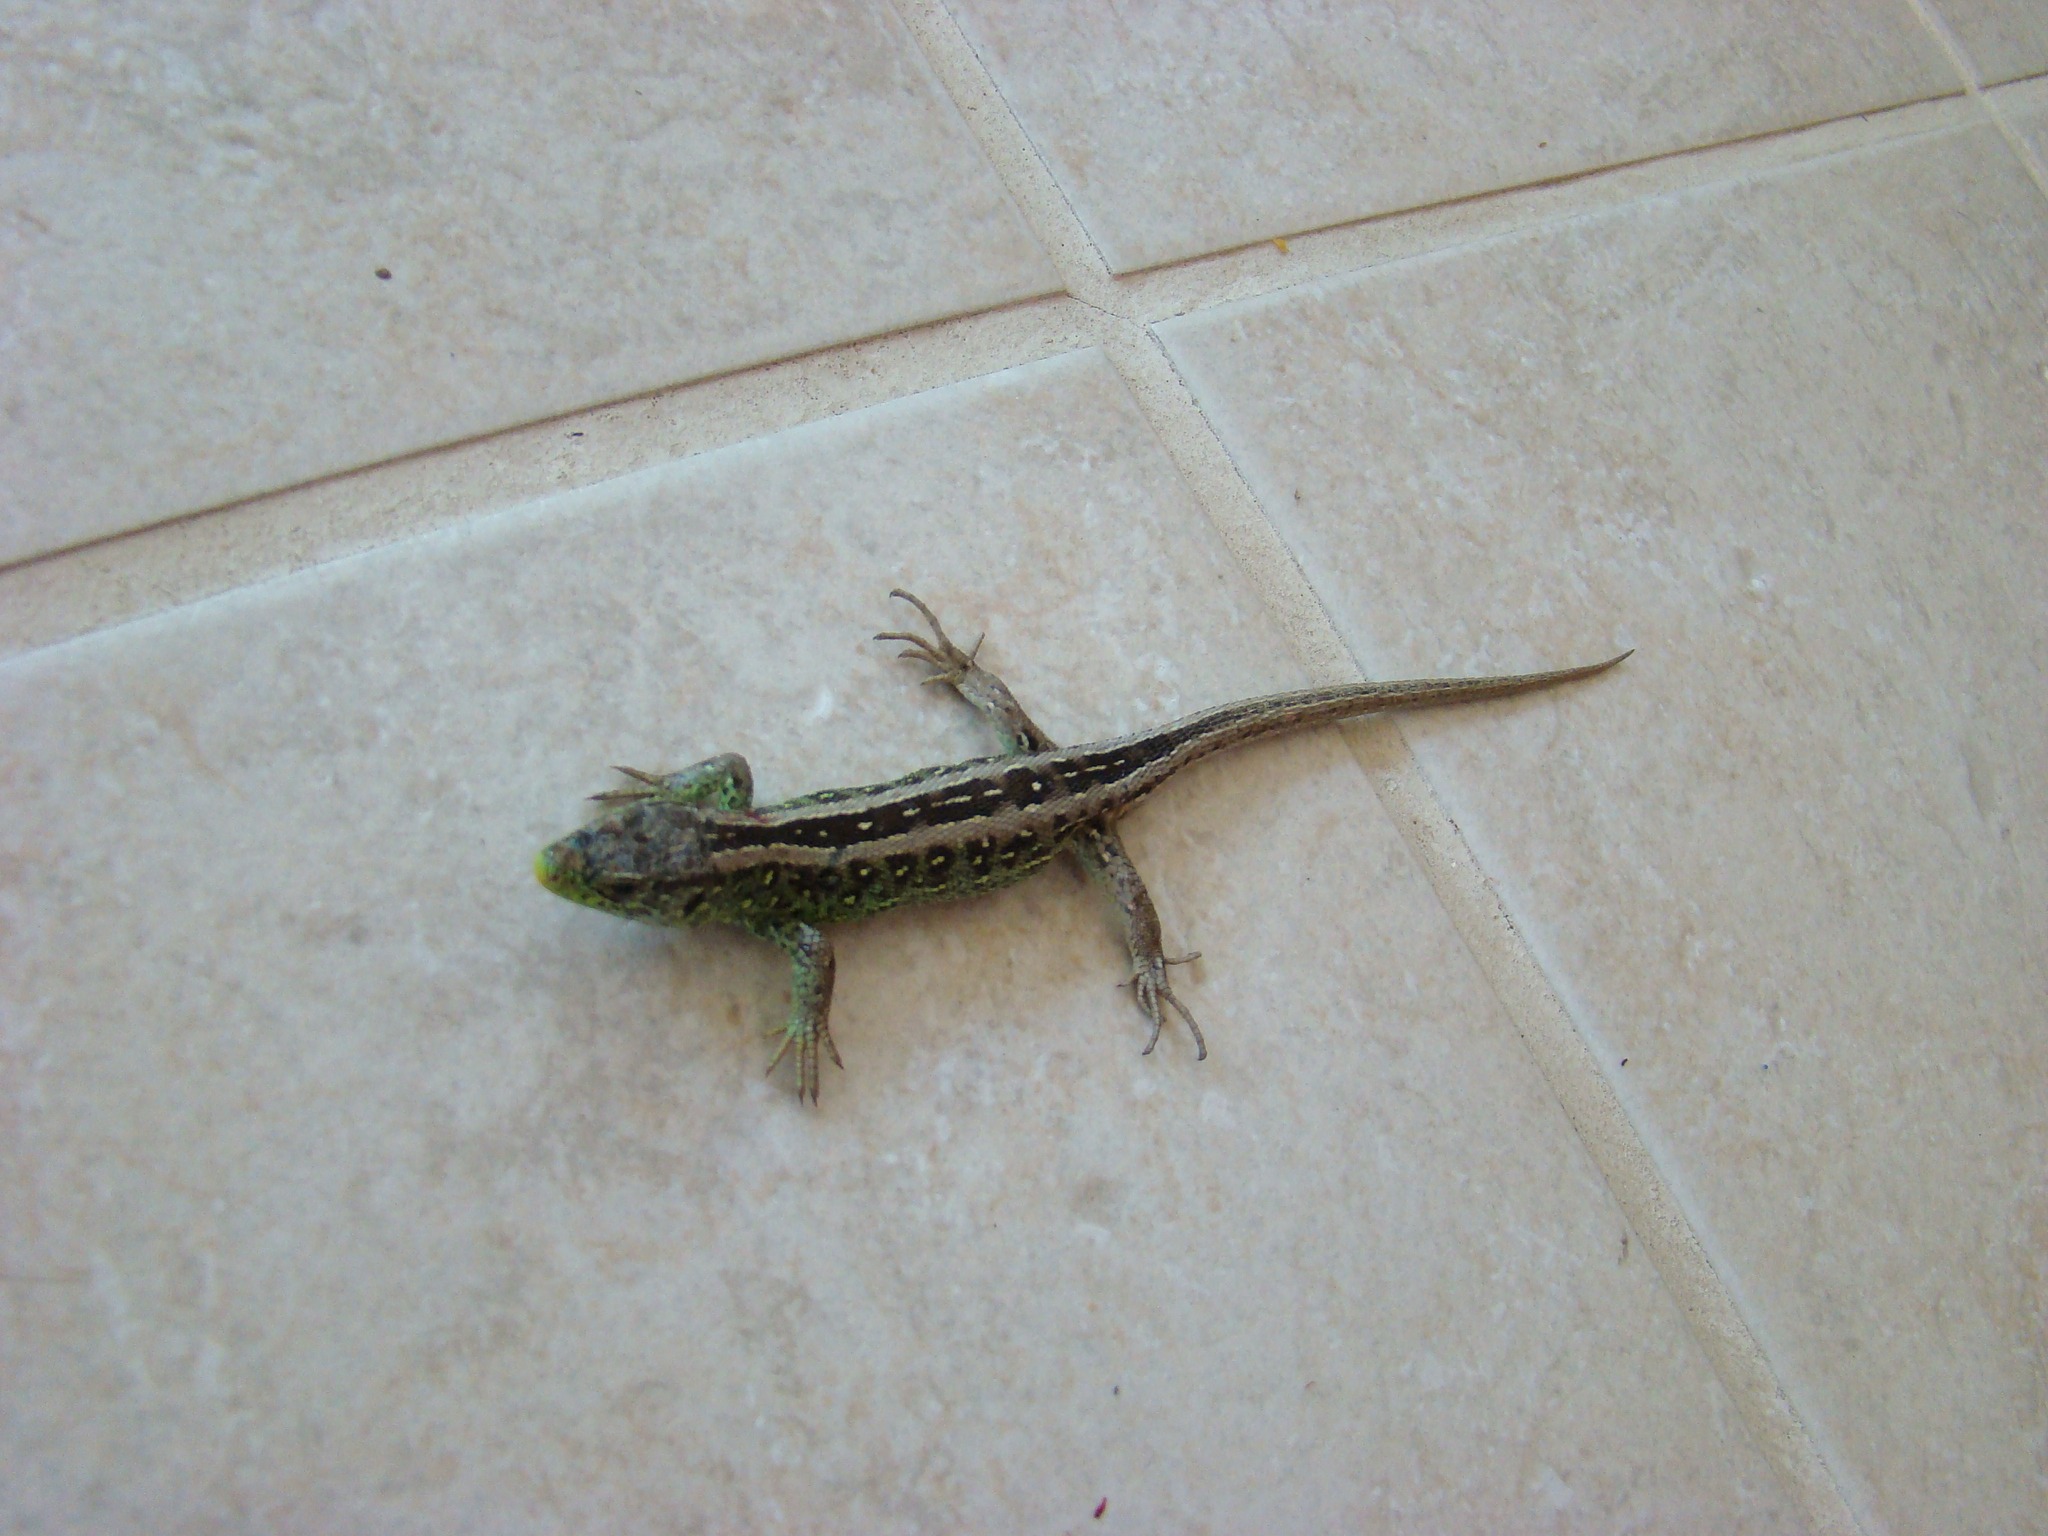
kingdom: Animalia
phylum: Chordata
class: Squamata
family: Lacertidae
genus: Lacerta
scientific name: Lacerta agilis
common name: Markfirben
